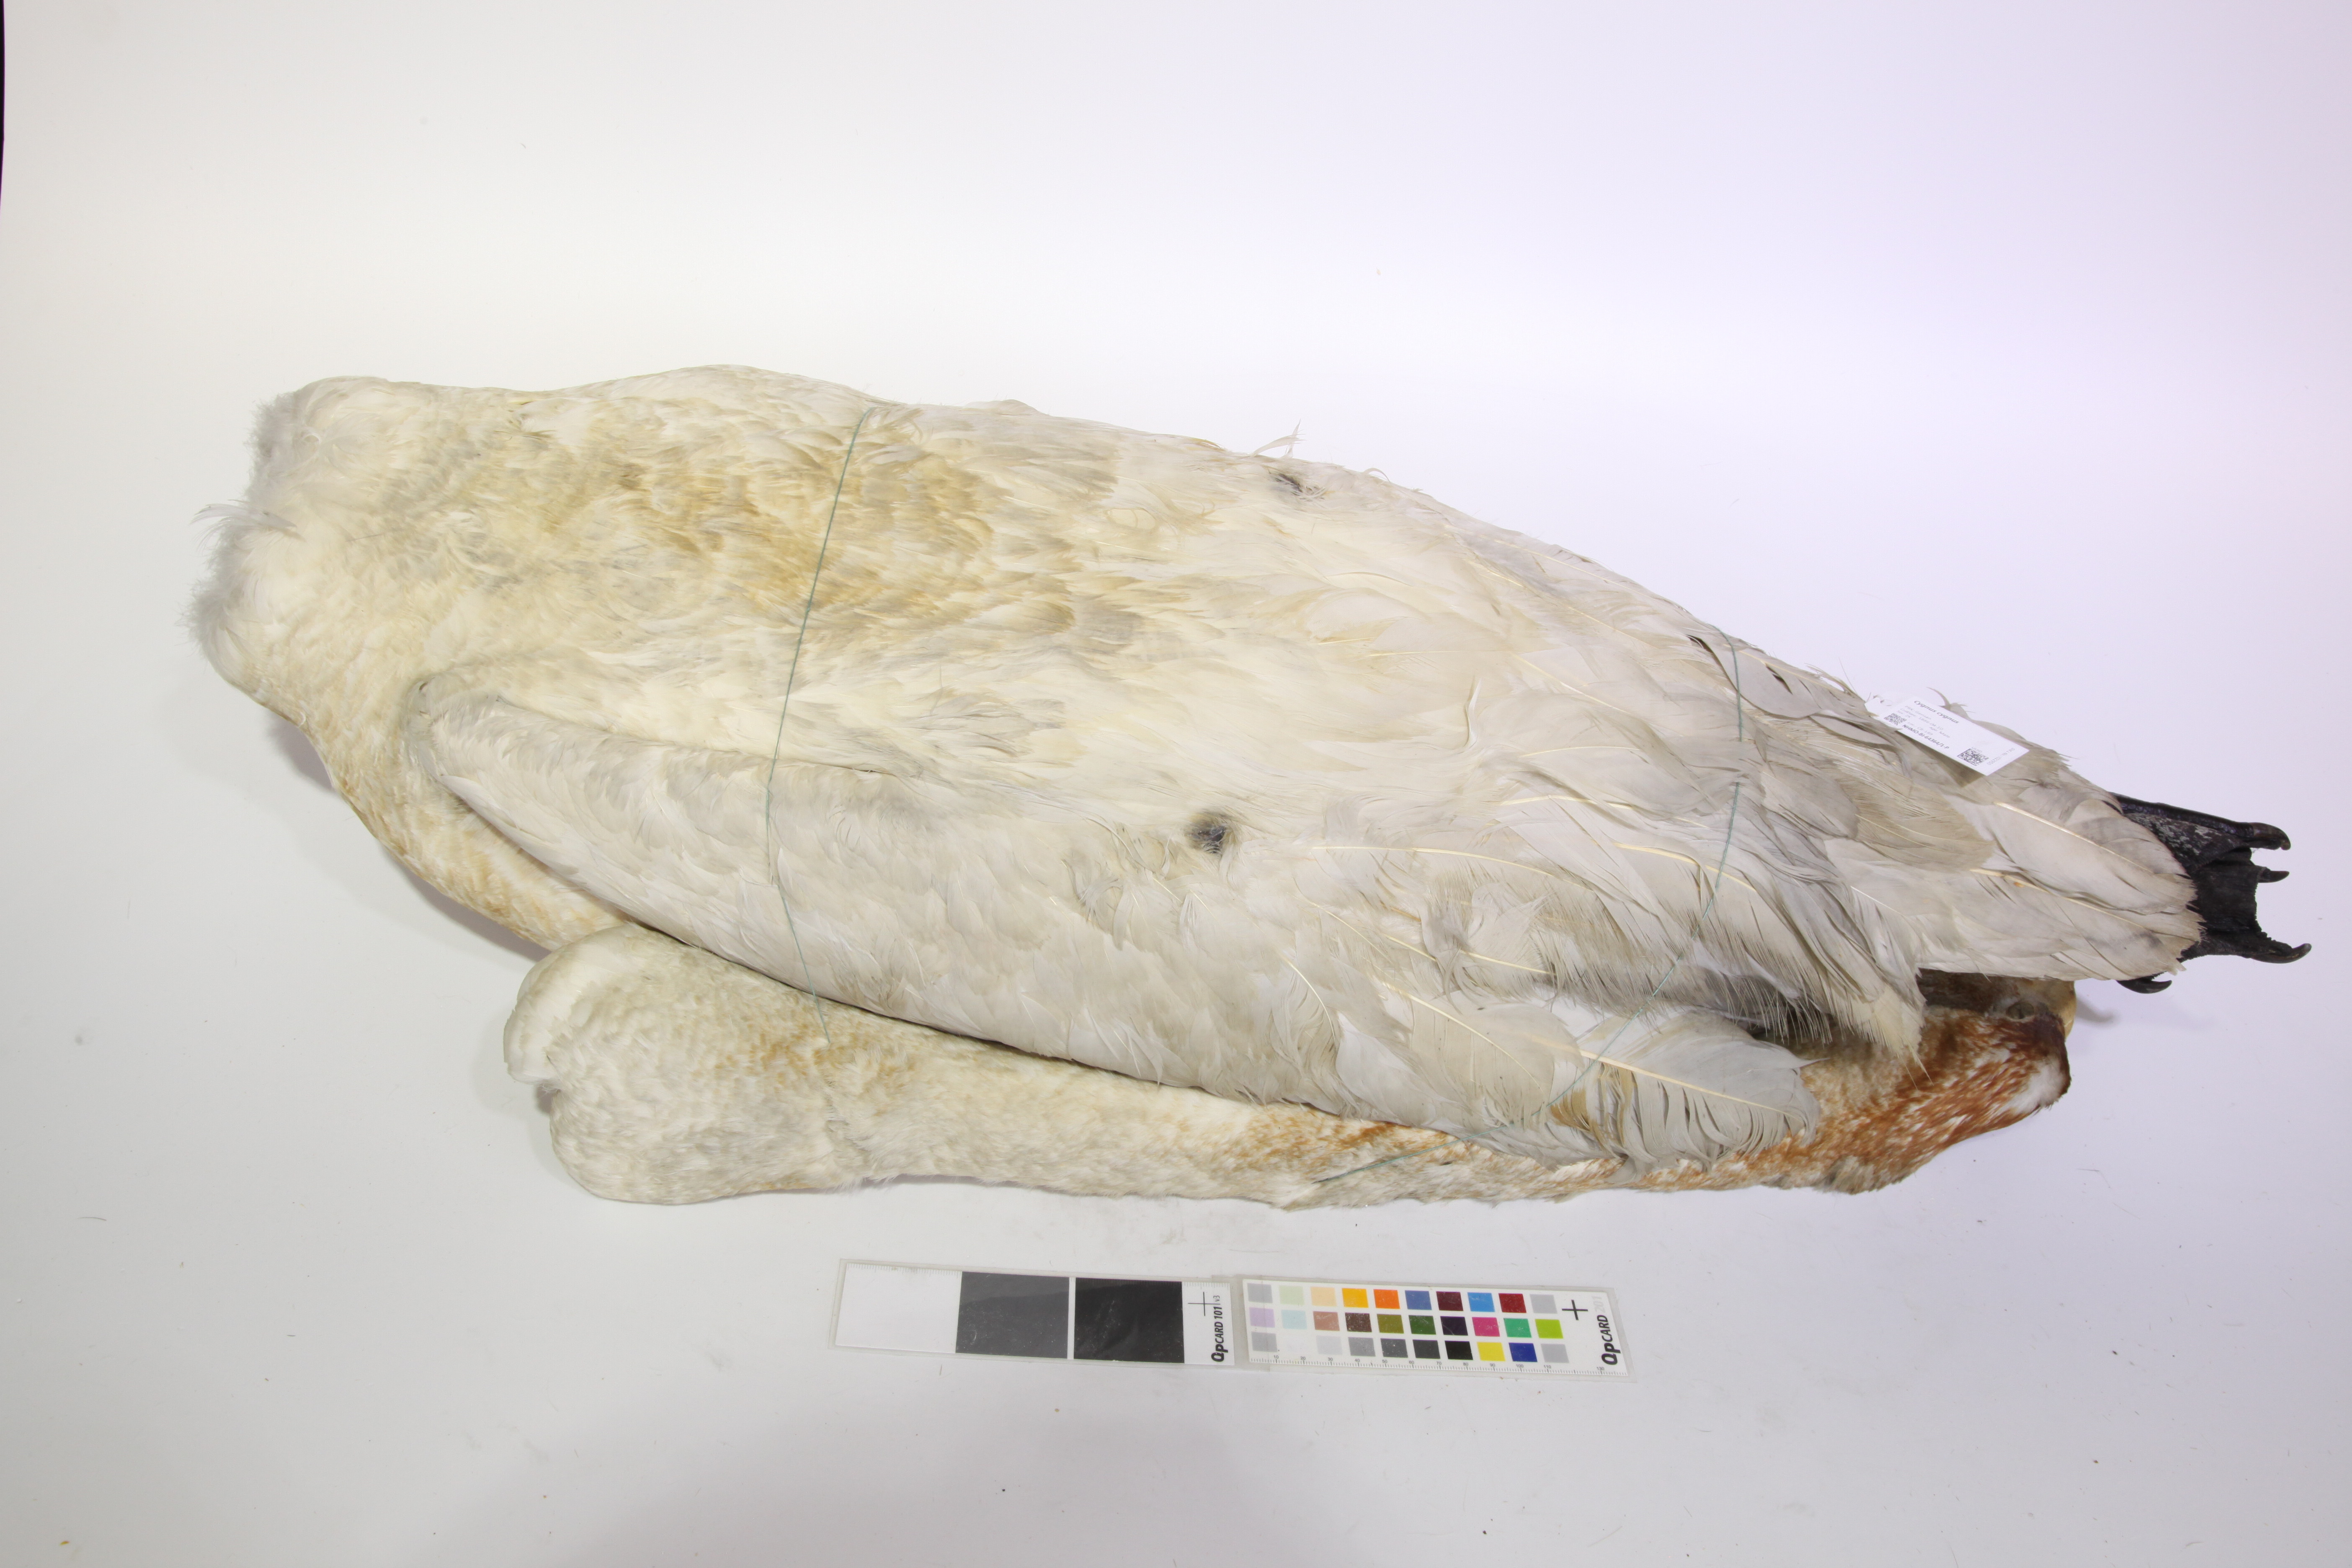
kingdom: Animalia
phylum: Chordata
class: Aves
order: Anseriformes
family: Anatidae
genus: Cygnus
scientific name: Cygnus cygnus
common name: Whooper swan
